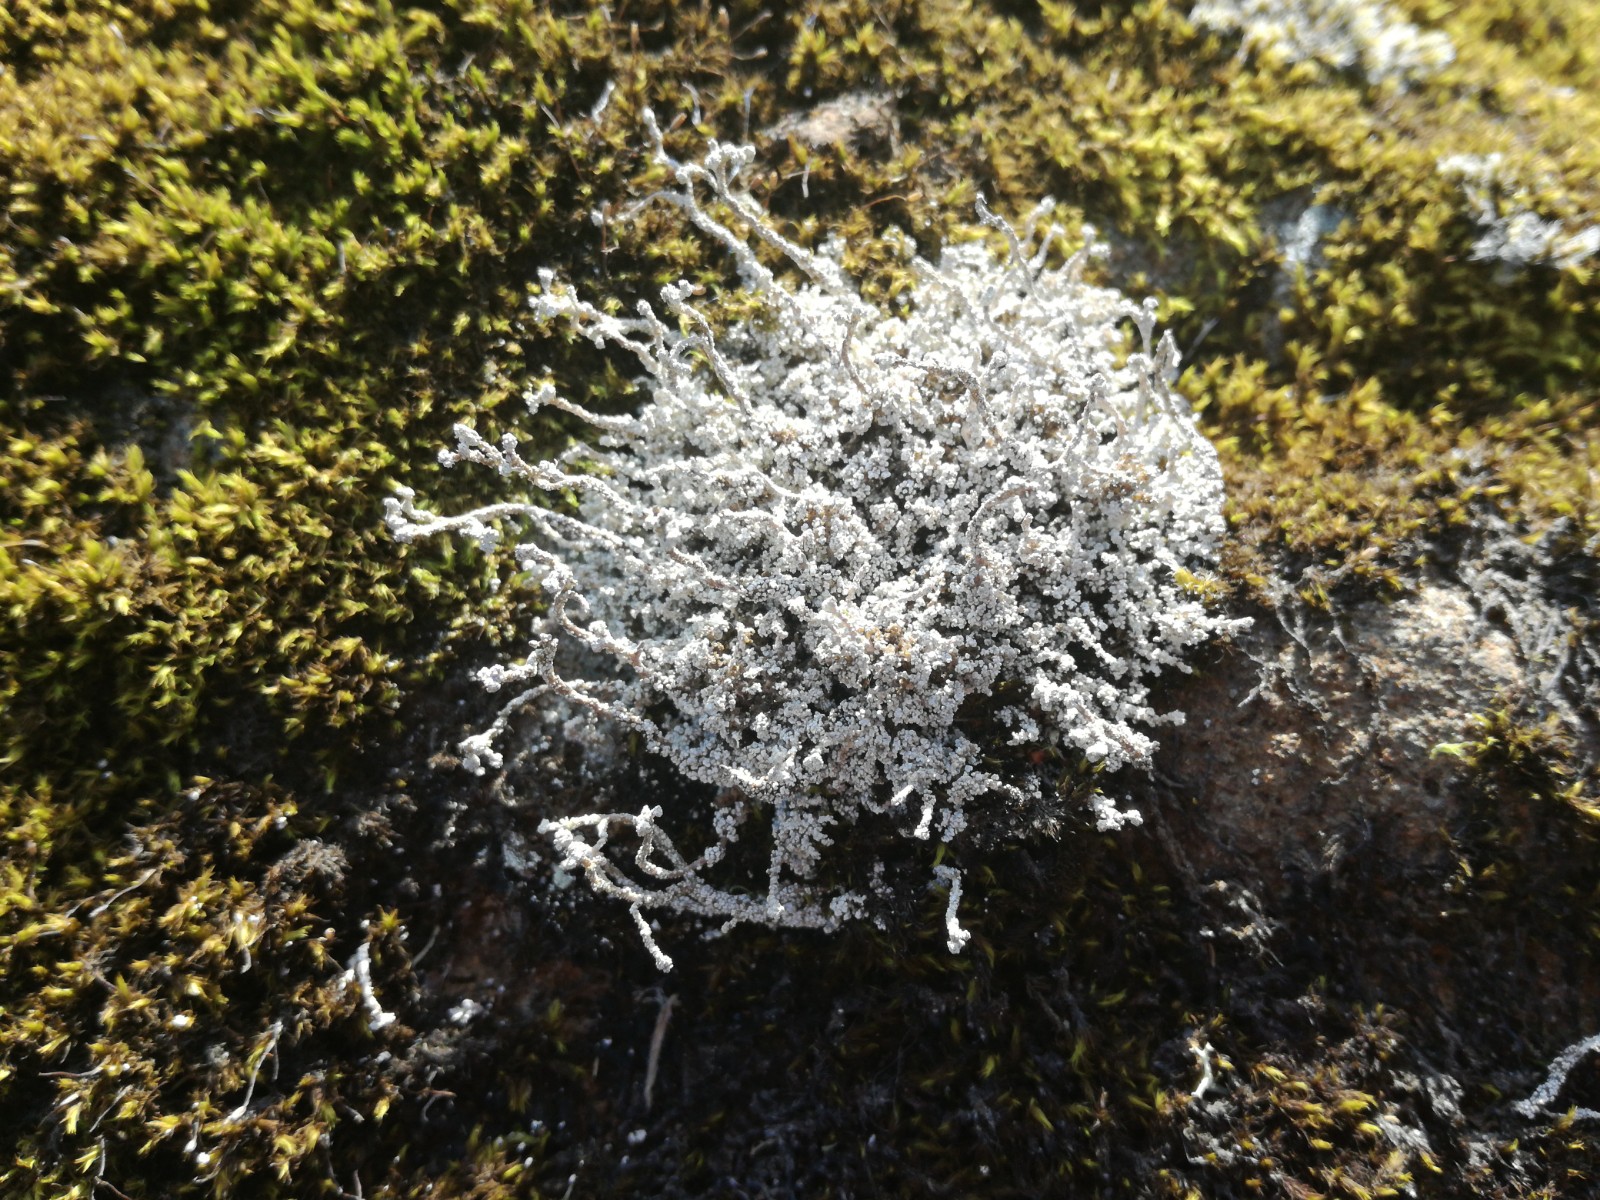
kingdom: Fungi
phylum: Ascomycota
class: Lecanoromycetes
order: Lecanorales
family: Stereocaulaceae
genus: Stereocaulon
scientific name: Stereocaulon
